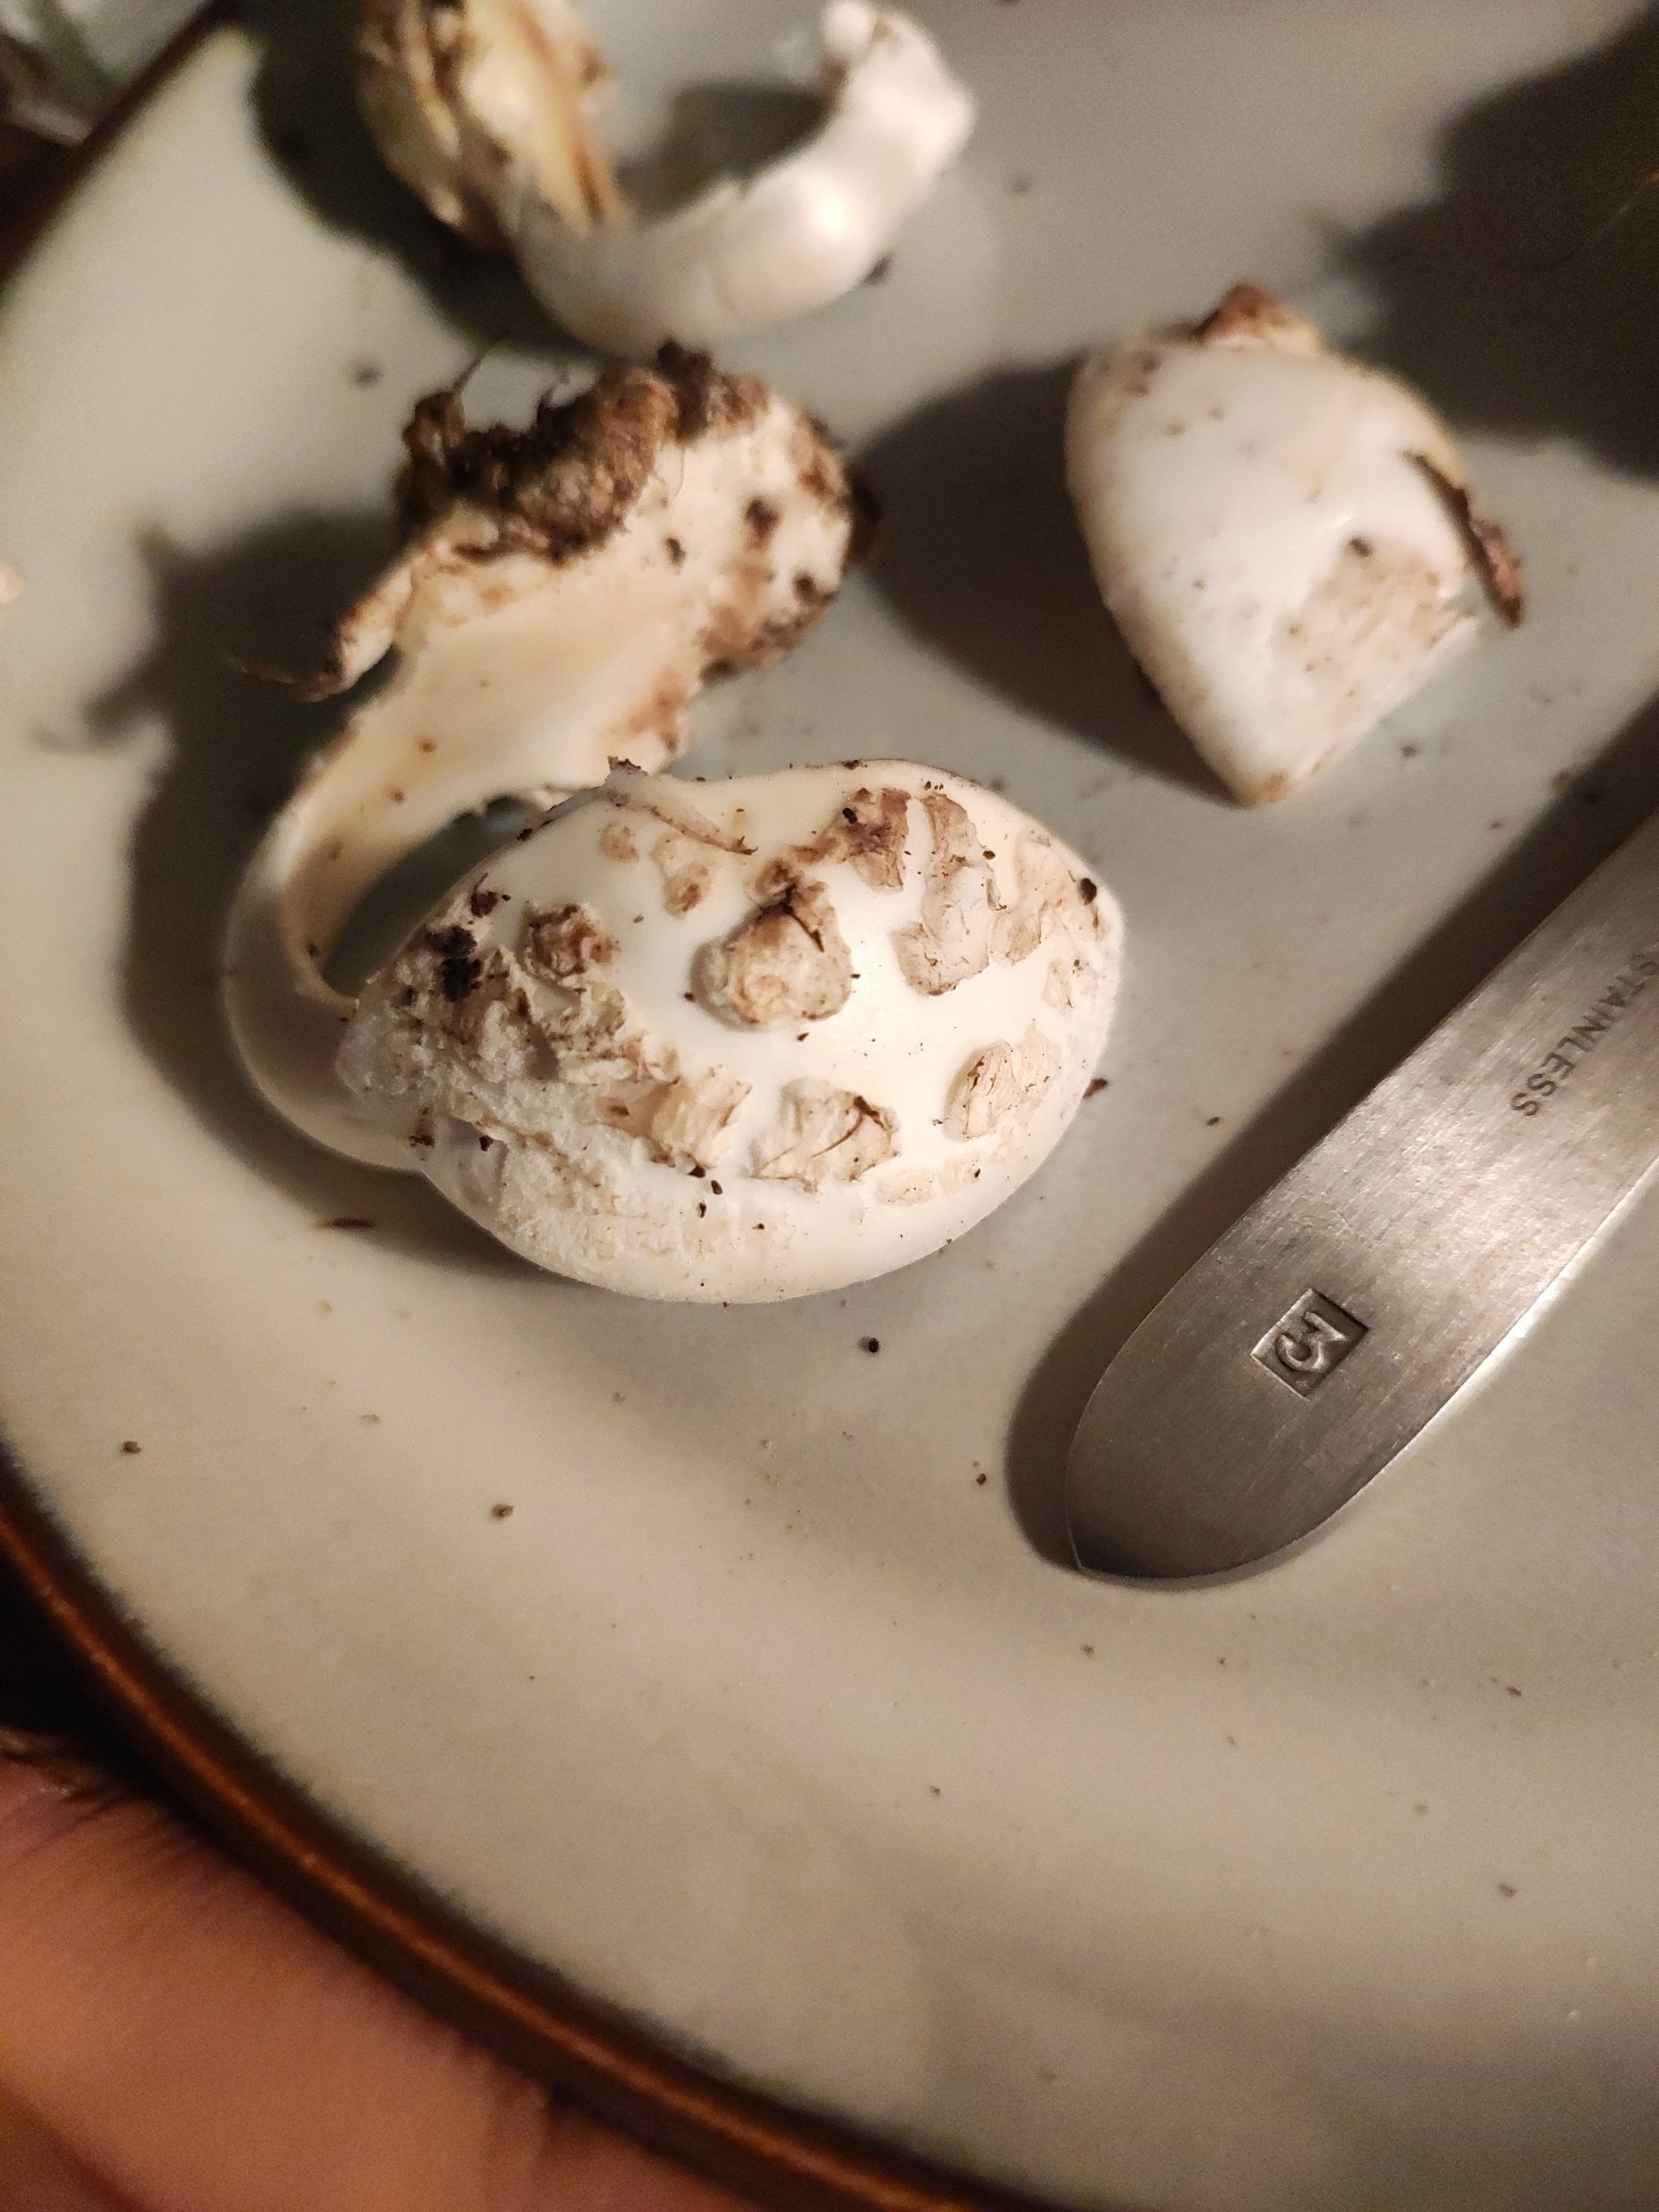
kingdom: Fungi
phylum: Basidiomycota
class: Agaricomycetes
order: Agaricales
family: Amanitaceae
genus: Amanita
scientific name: Amanita citrina
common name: kugleknoldet fluesvamp
